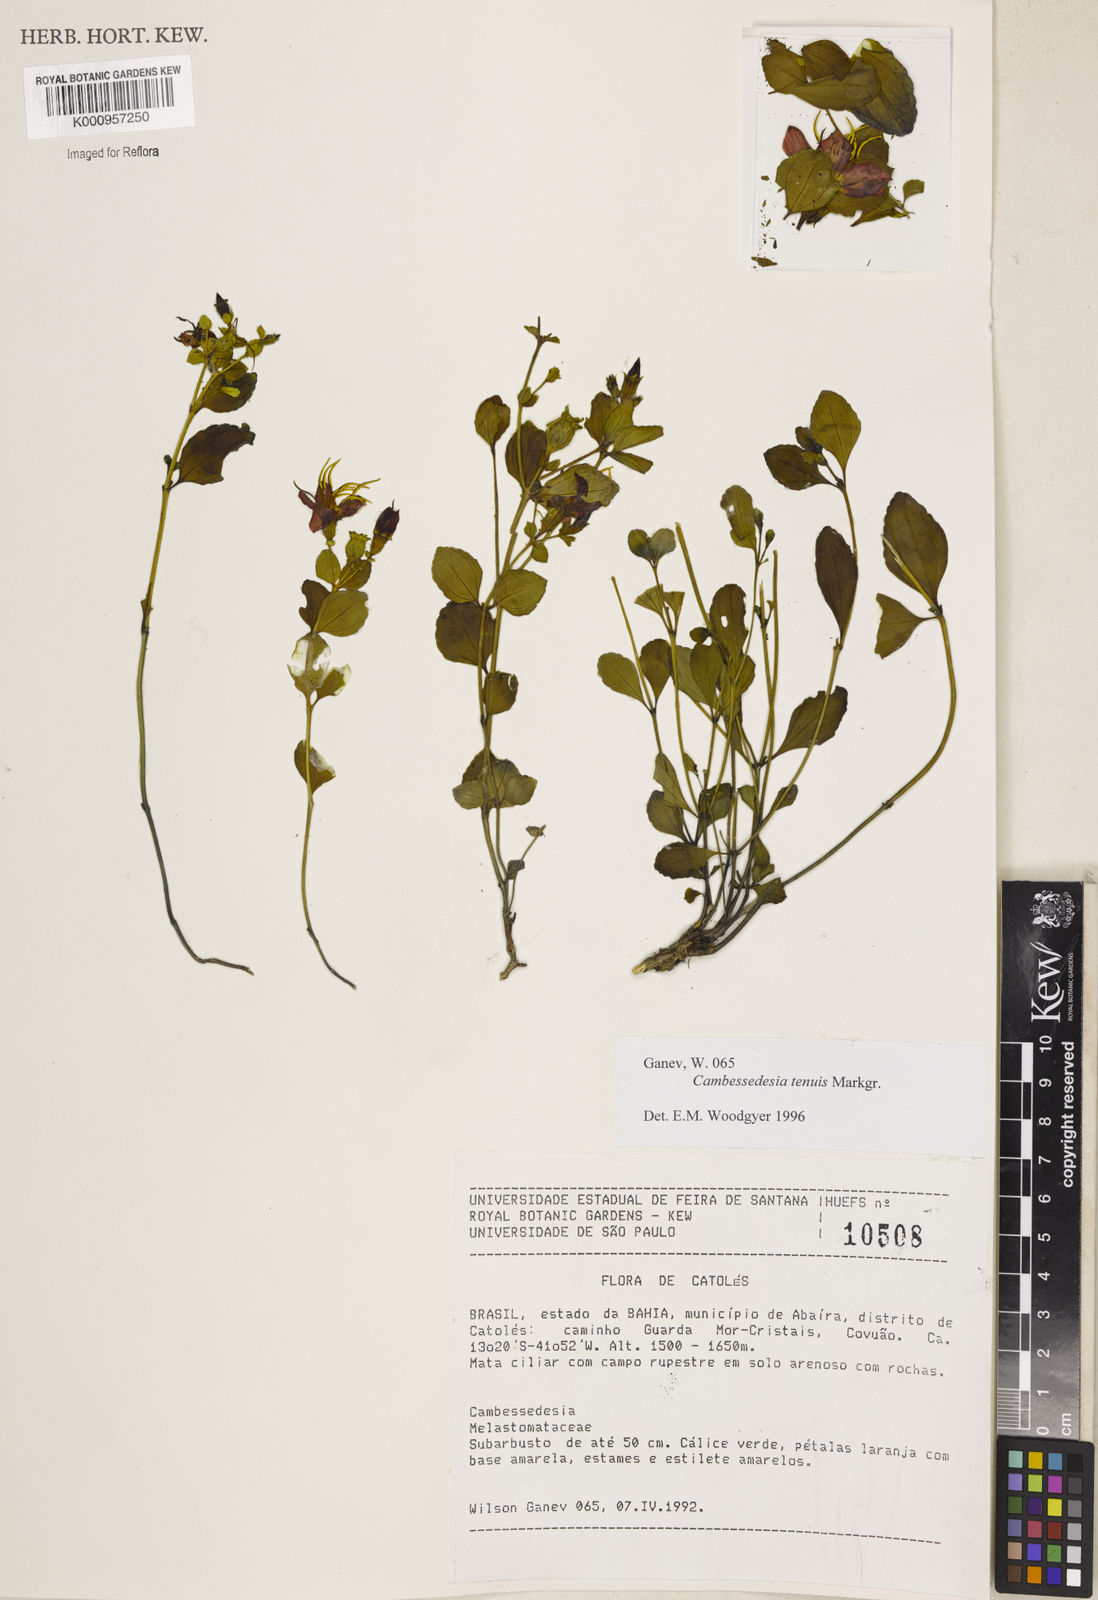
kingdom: Plantae
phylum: Tracheophyta
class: Magnoliopsida
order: Myrtales
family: Melastomataceae
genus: Cambessedesia
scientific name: Cambessedesia tenuis
